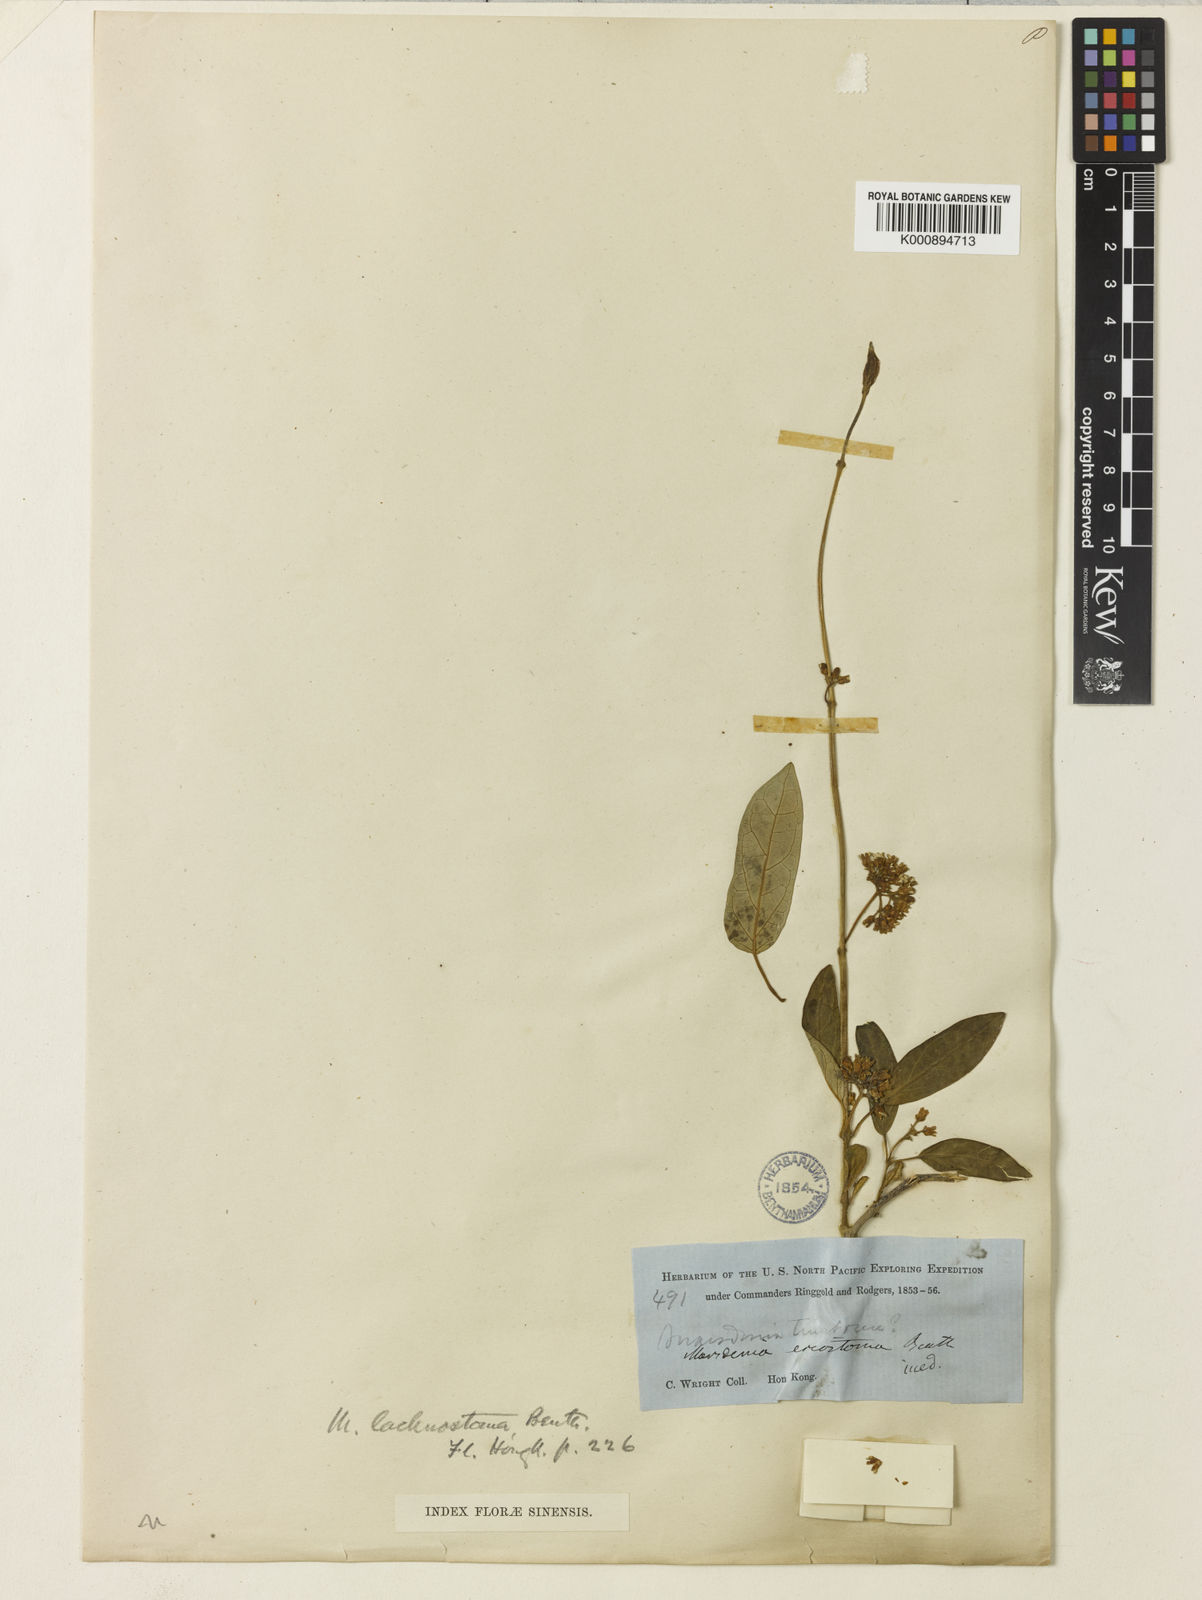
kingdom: Plantae
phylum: Tracheophyta
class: Magnoliopsida
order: Gentianales
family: Apocynaceae
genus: Marsdenia
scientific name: Marsdenia lachnostoma
